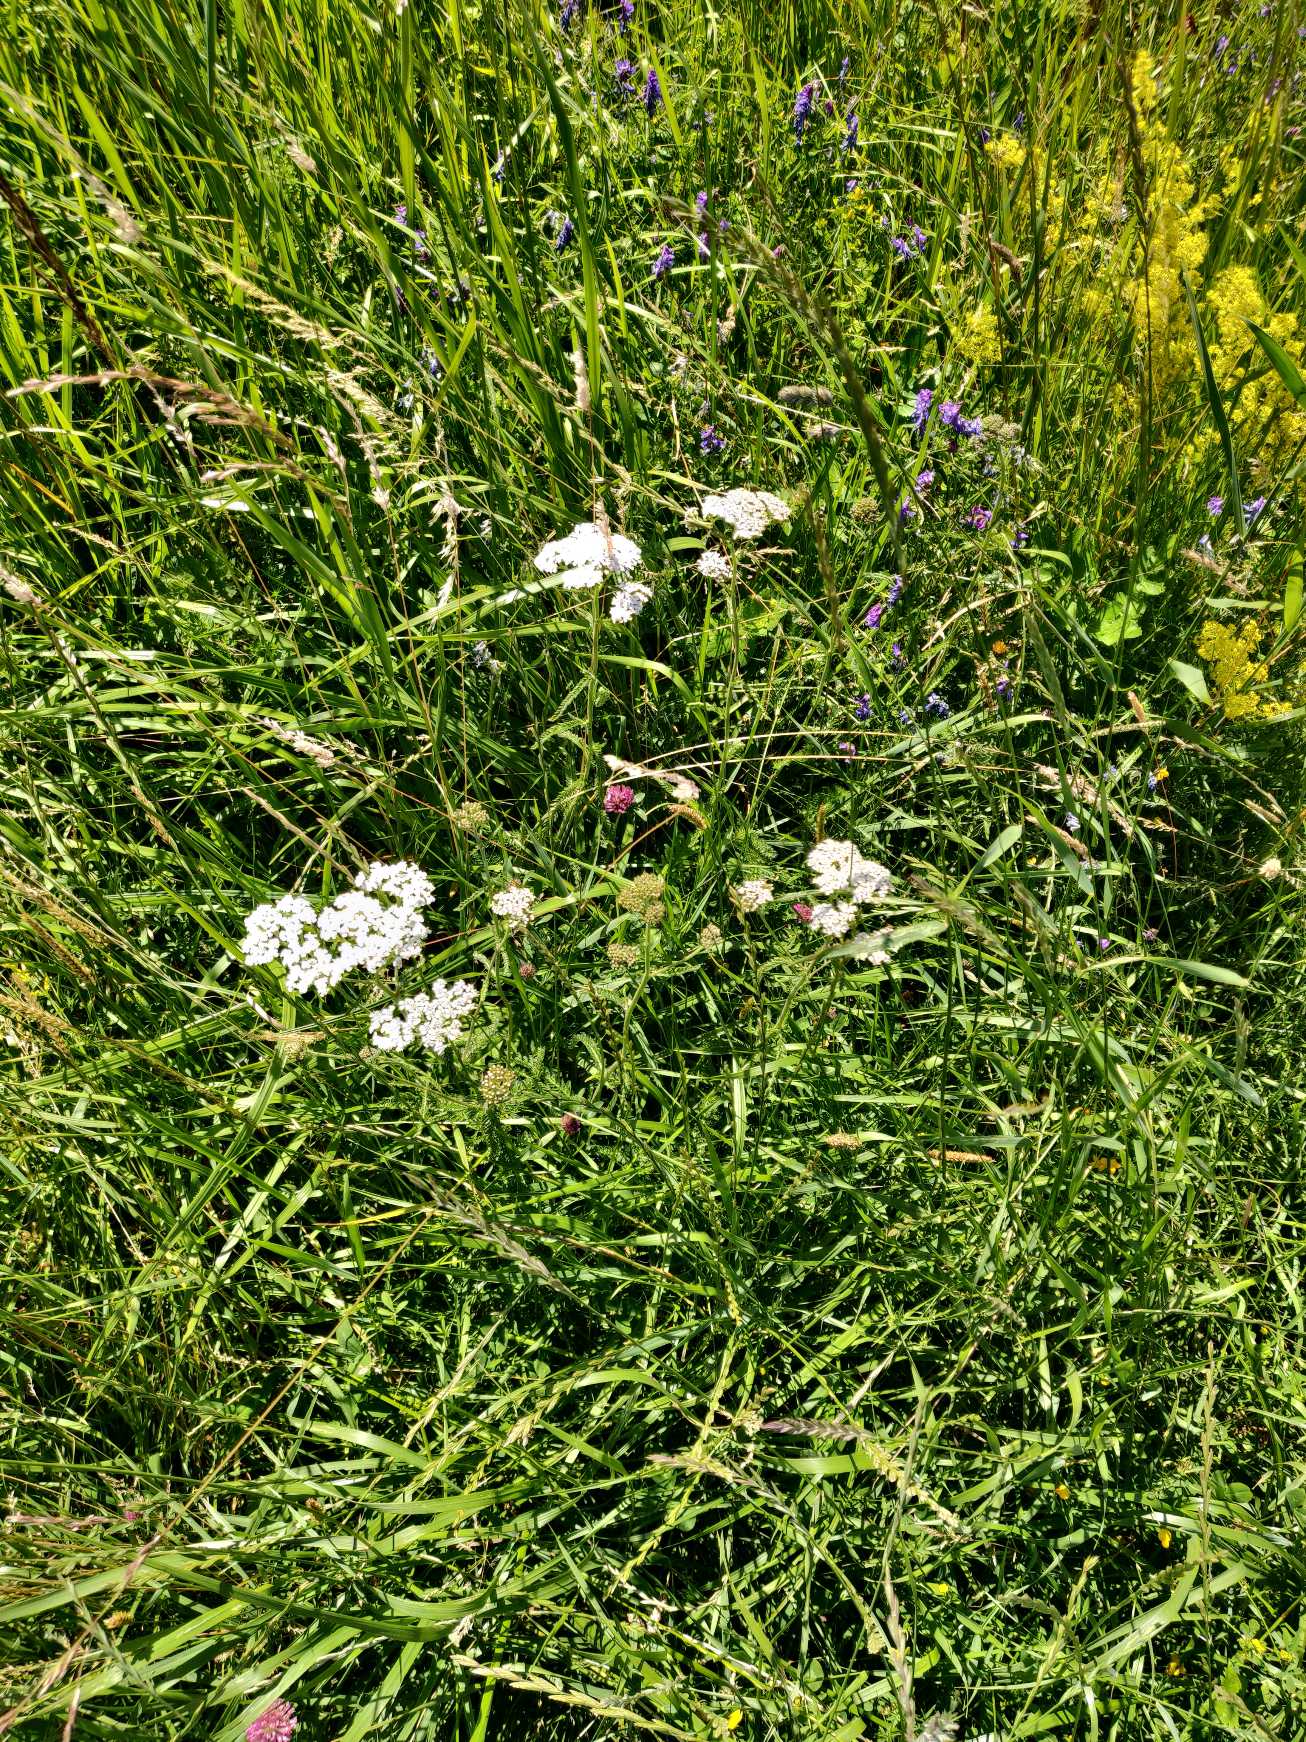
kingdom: Plantae
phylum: Tracheophyta
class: Magnoliopsida
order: Asterales
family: Asteraceae
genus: Achillea
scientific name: Achillea millefolium
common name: Almindelig røllike
